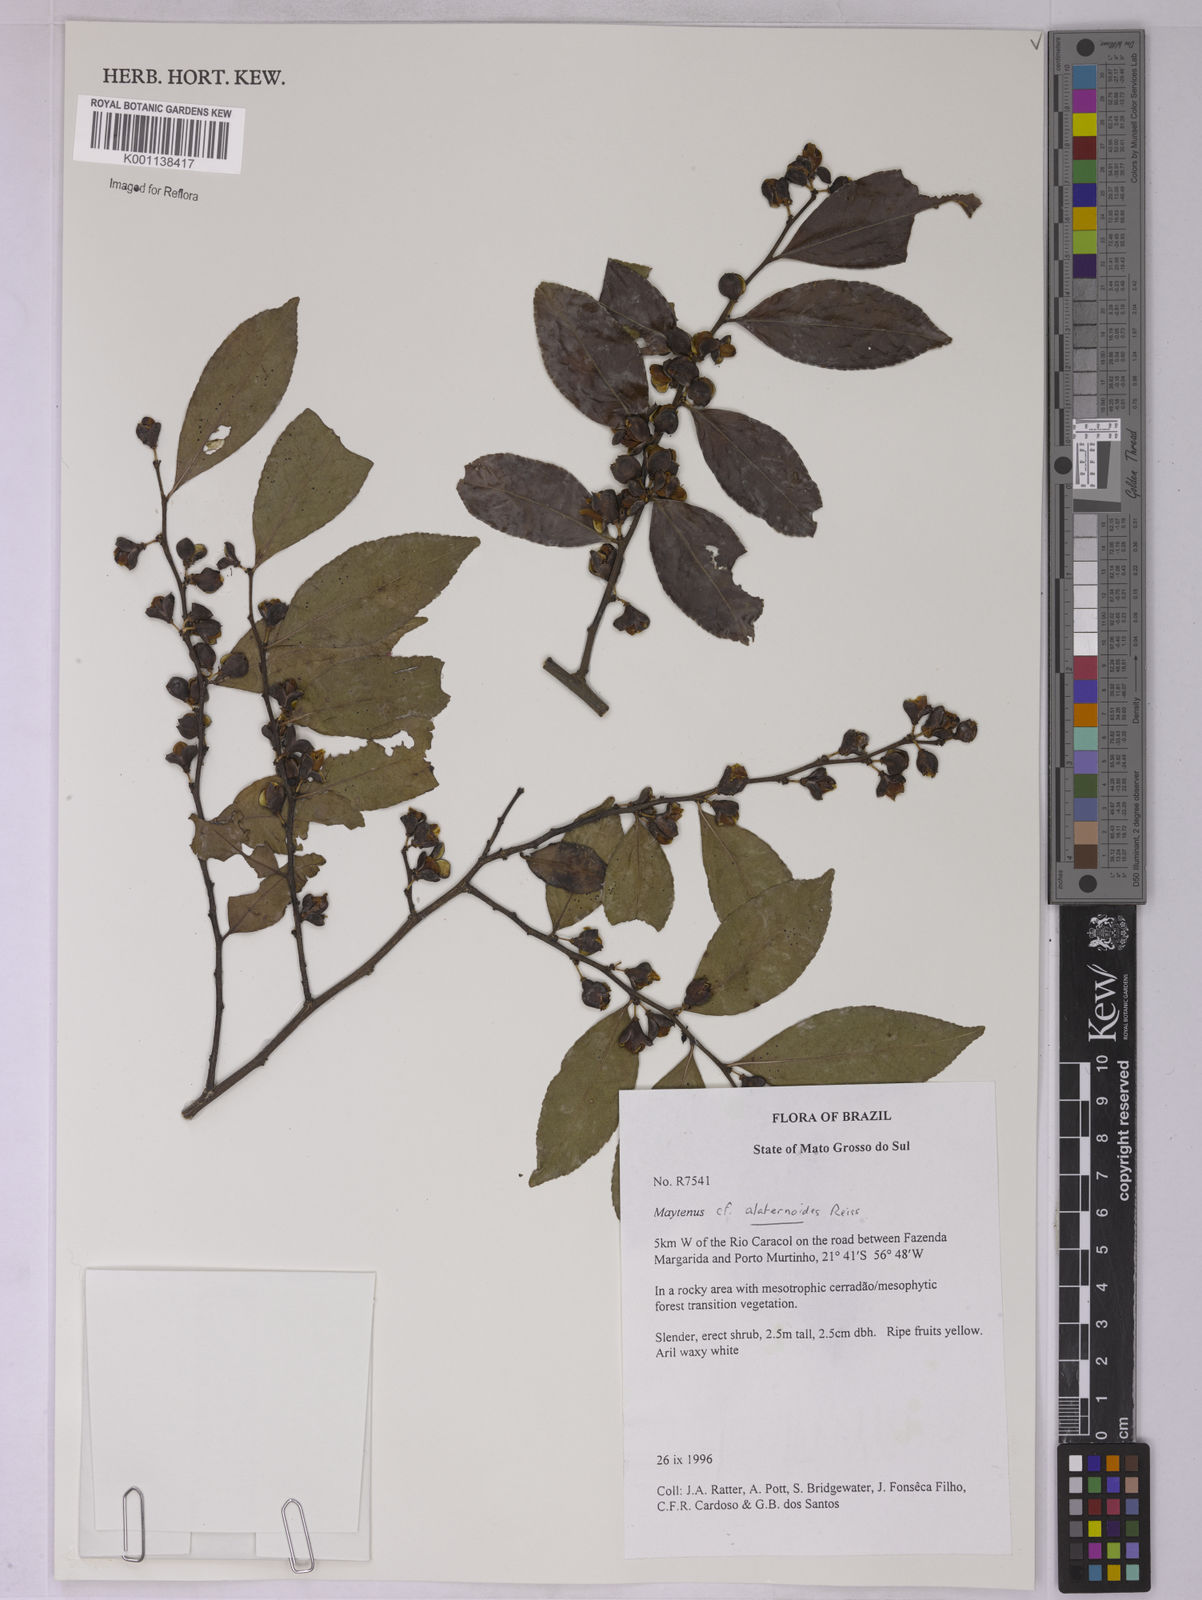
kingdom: Plantae
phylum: Tracheophyta
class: Magnoliopsida
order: Celastrales
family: Celastraceae
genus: Maytenus
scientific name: Maytenus alaternoides
